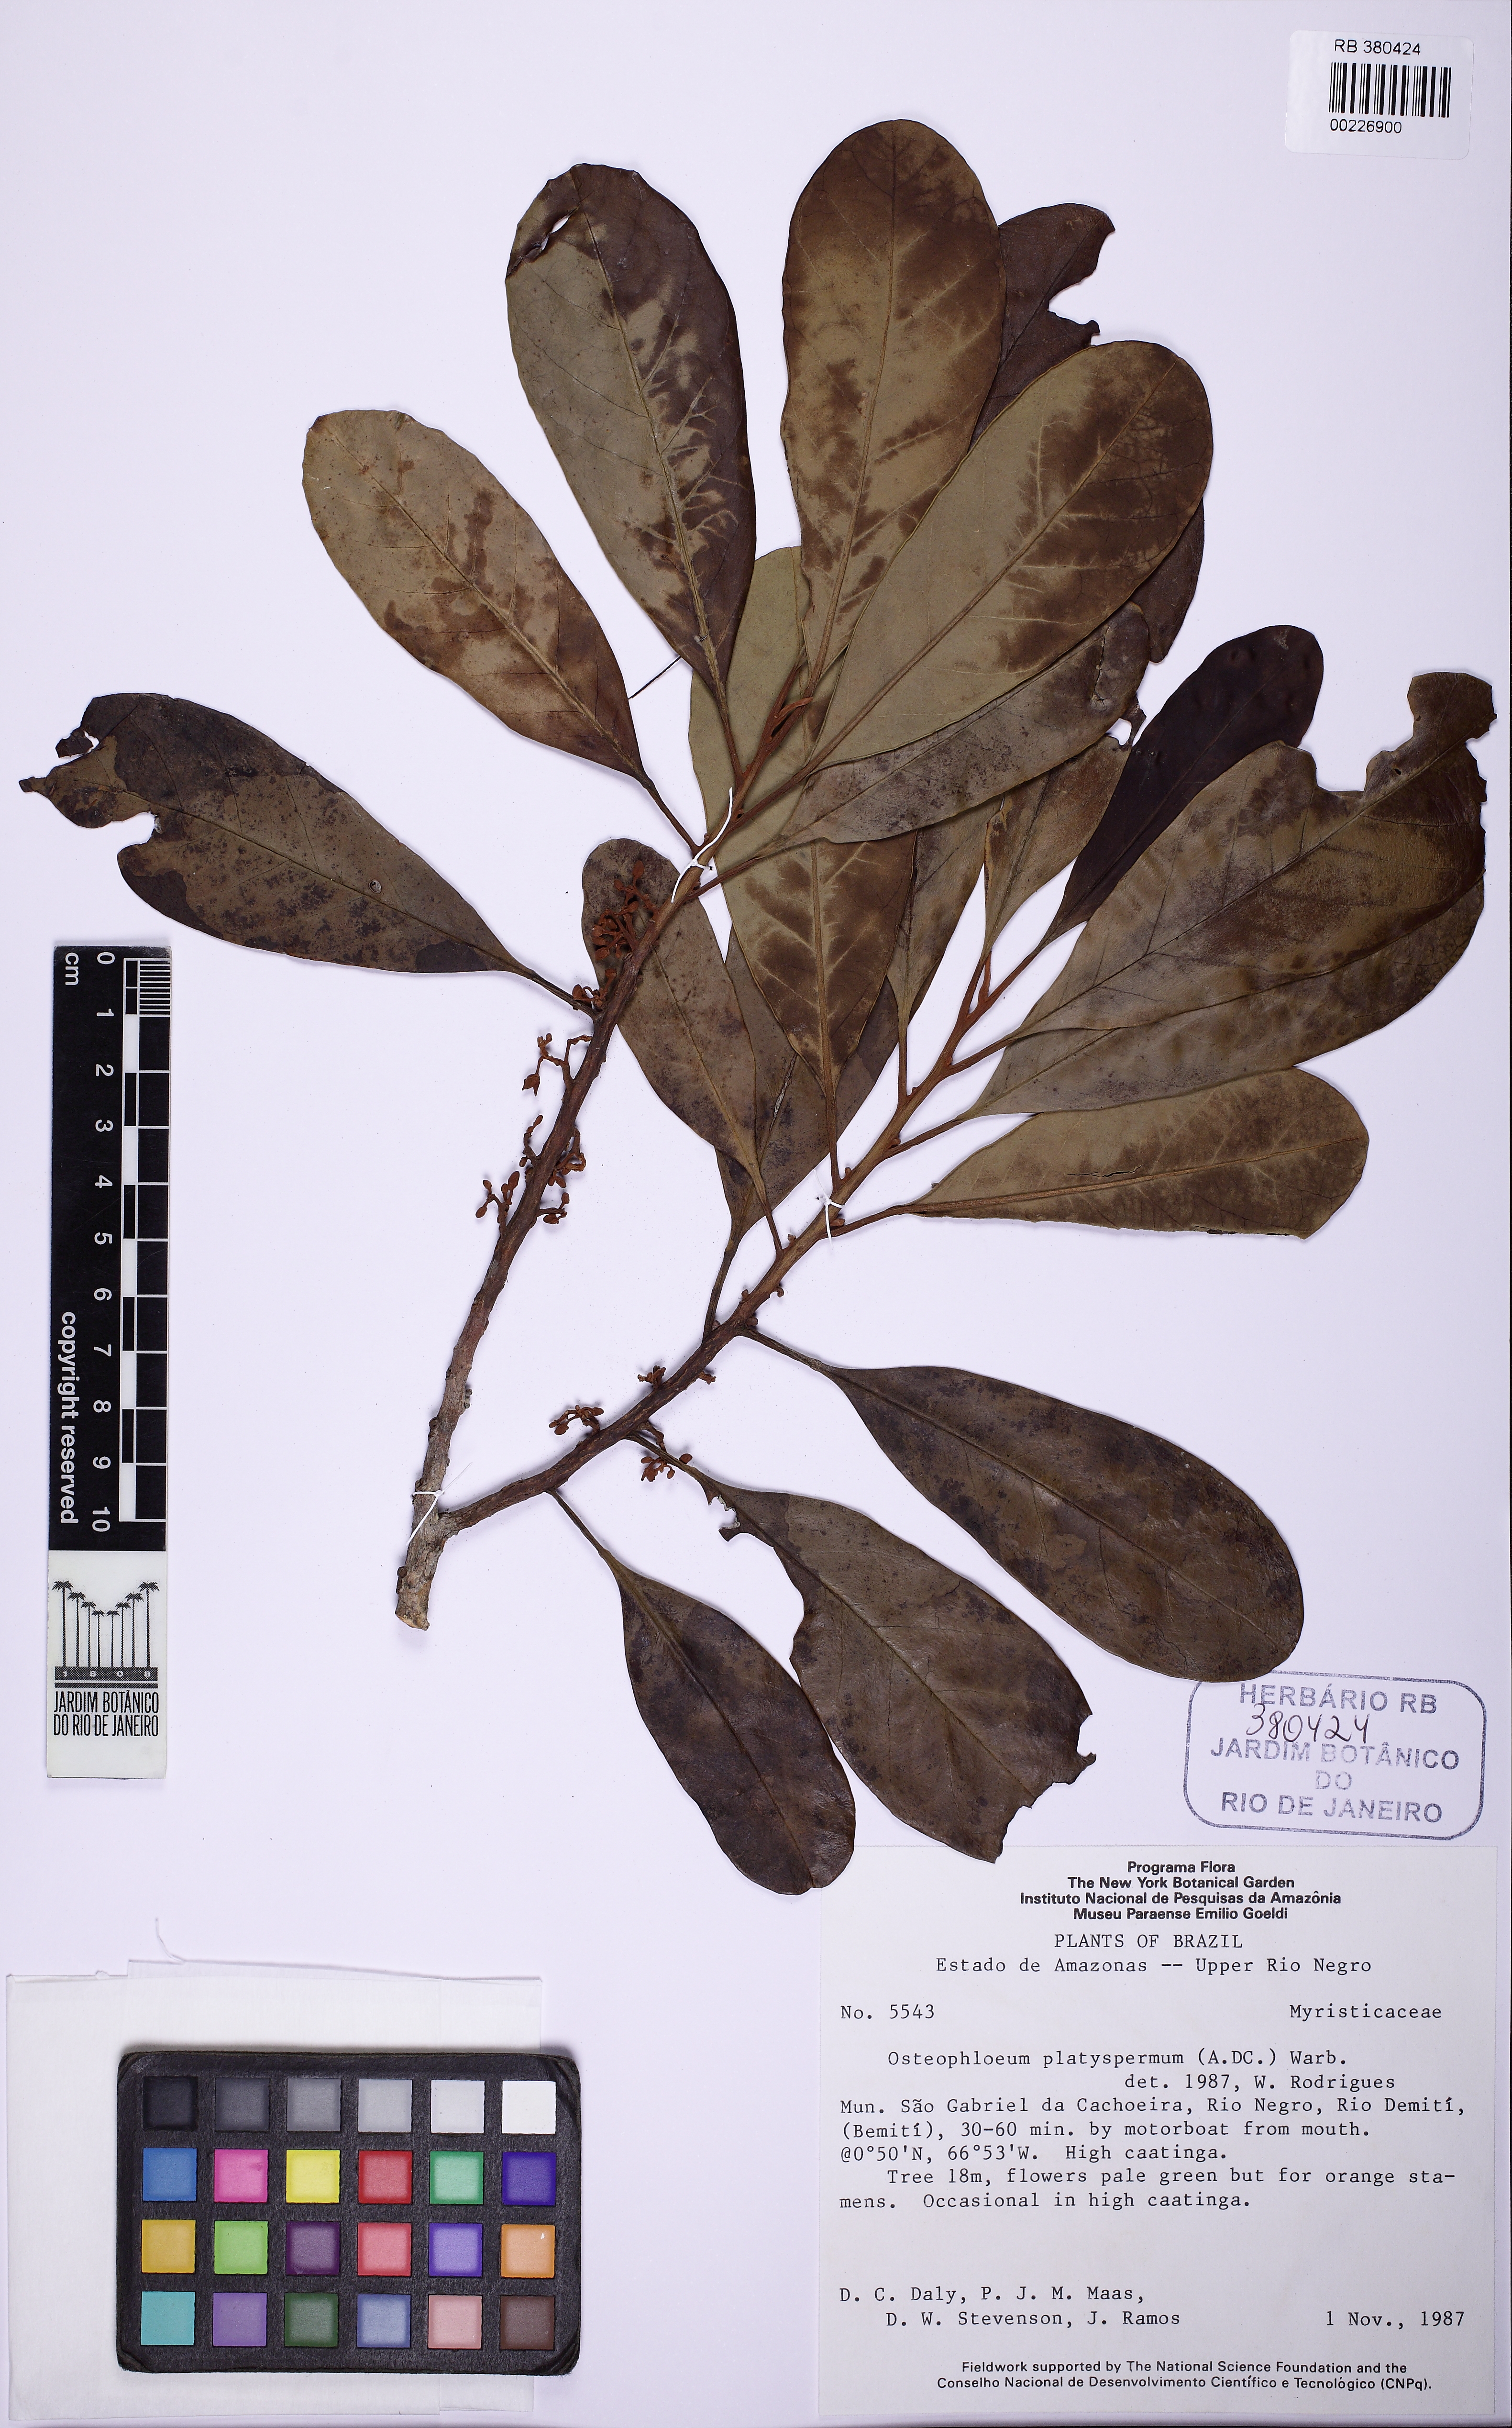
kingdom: Plantae
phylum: Tracheophyta
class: Magnoliopsida
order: Magnoliales
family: Myristicaceae
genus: Osteophloeum
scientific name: Osteophloeum platyspermum
